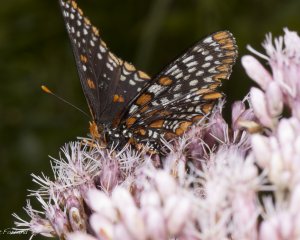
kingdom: Animalia
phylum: Arthropoda
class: Insecta
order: Lepidoptera
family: Nymphalidae
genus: Euphydryas
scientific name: Euphydryas phaeton
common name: Baltimore Checkerspot
